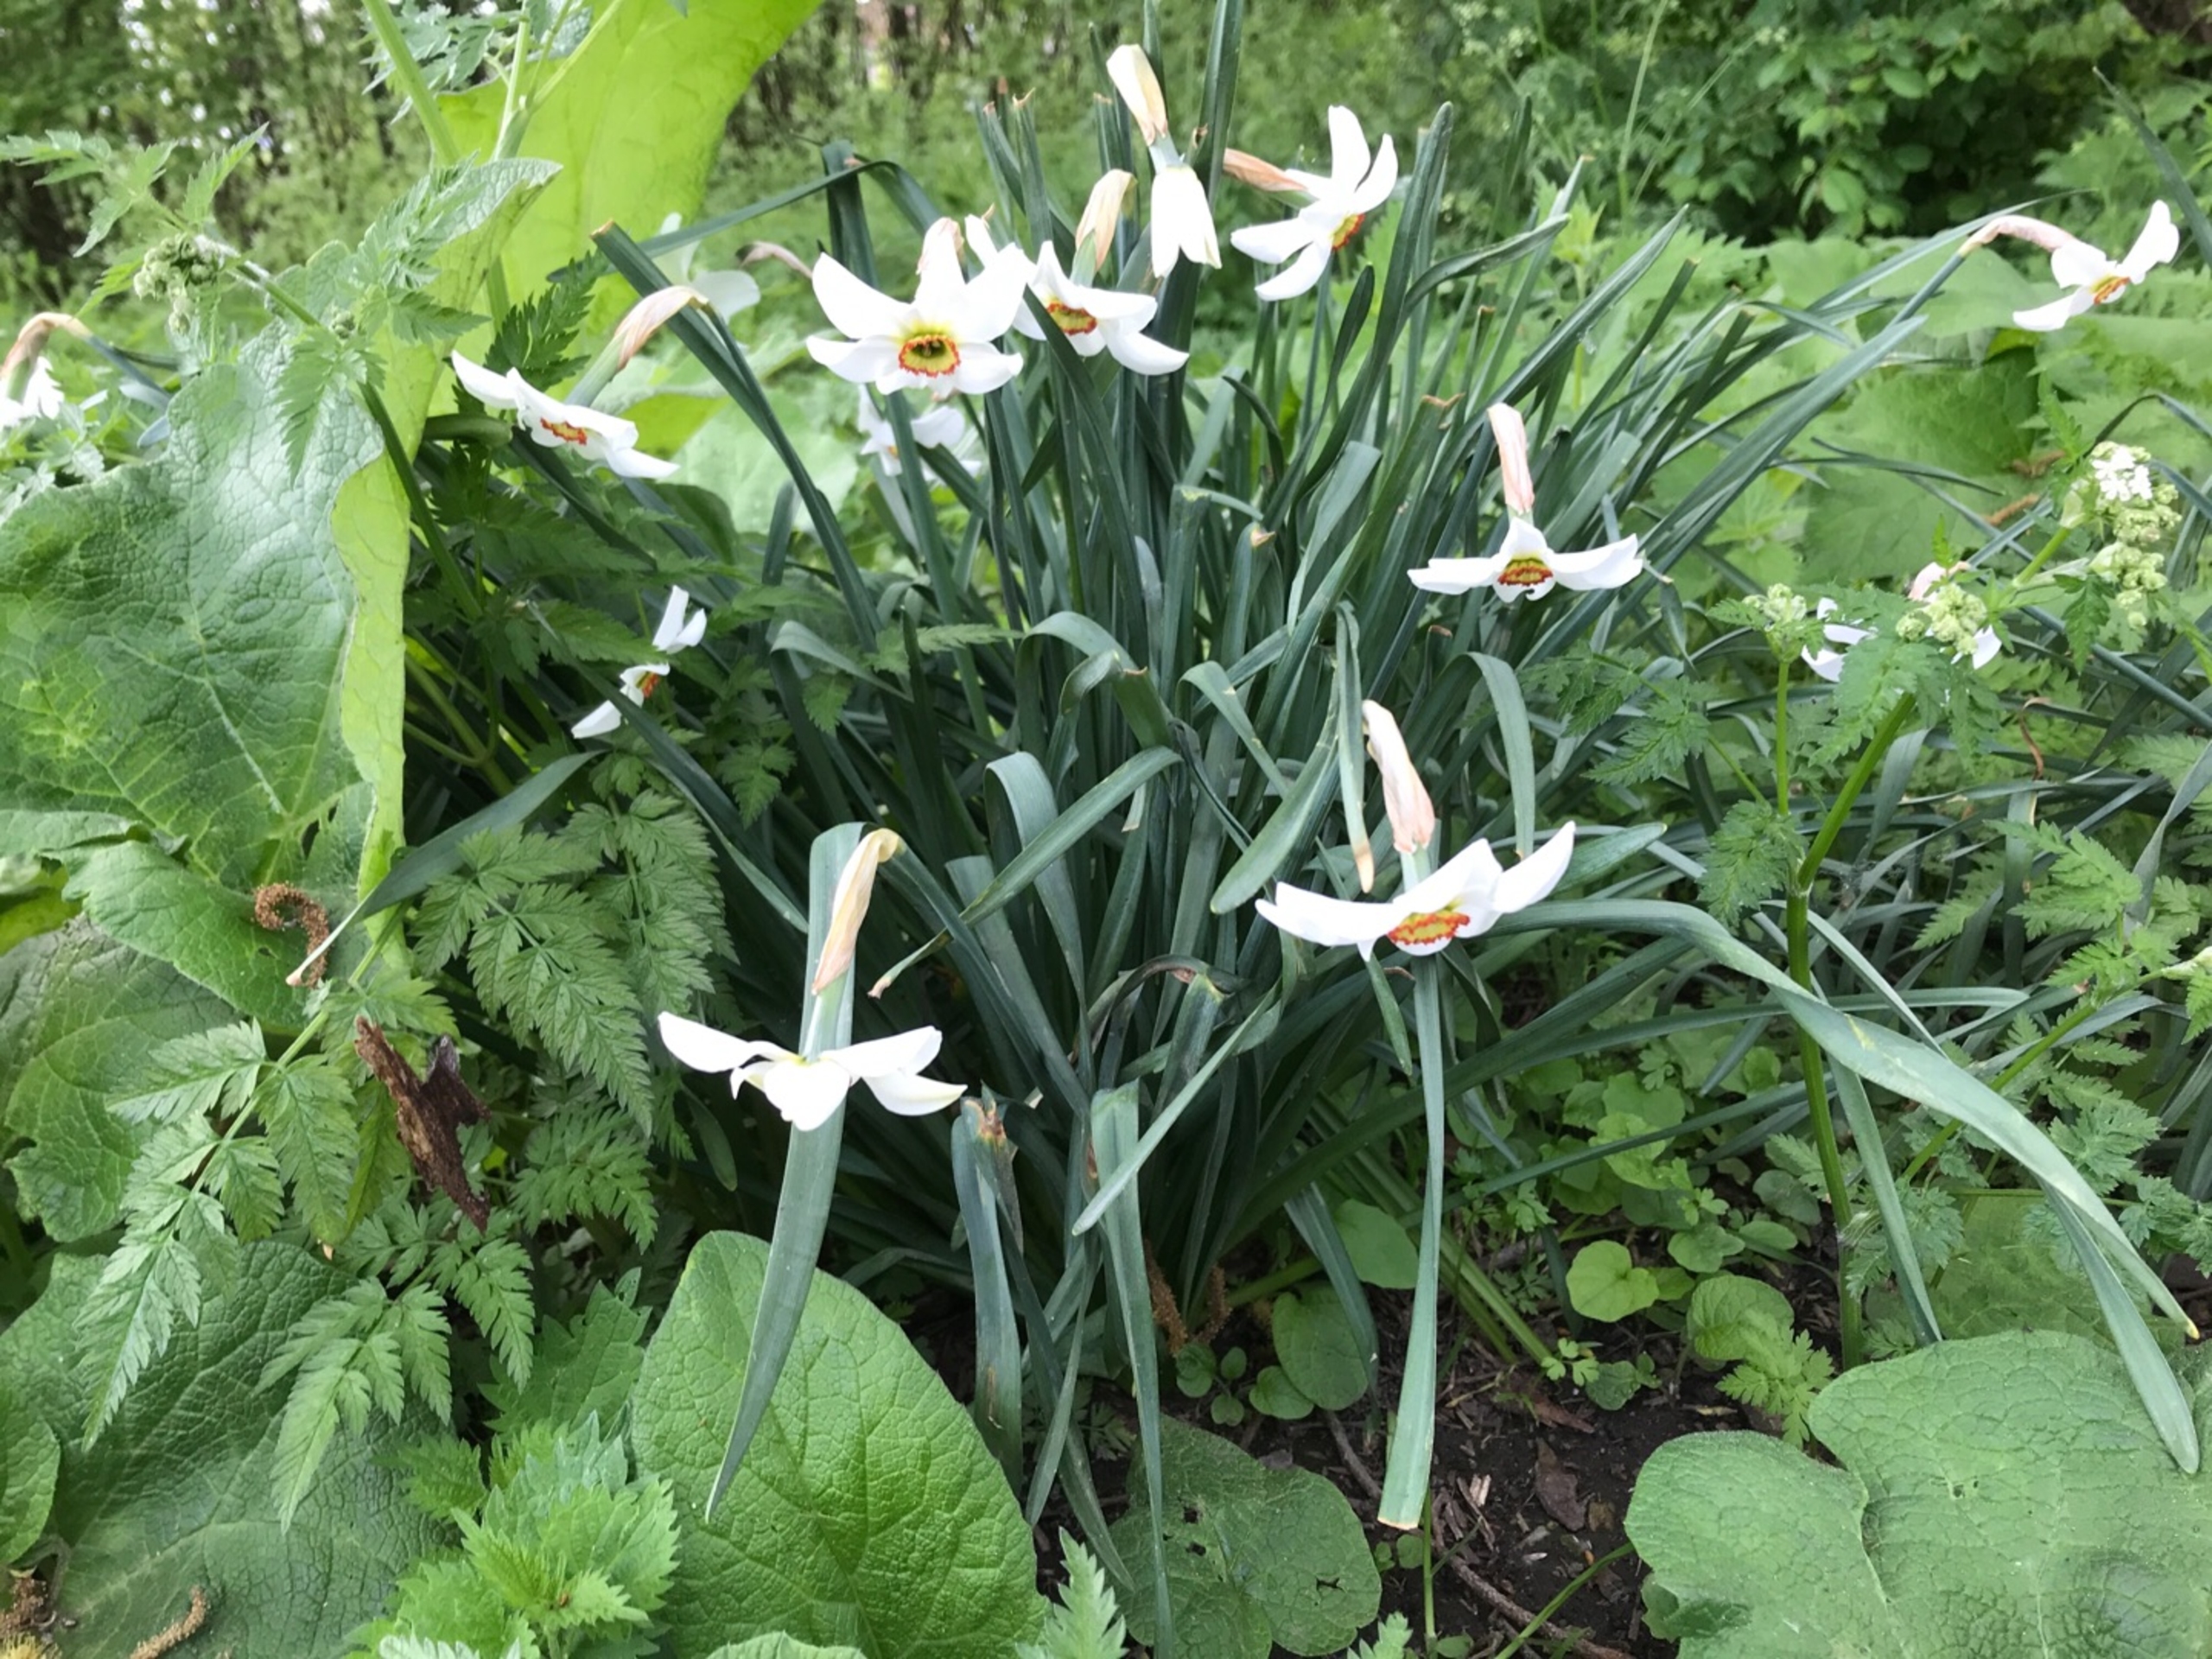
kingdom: Plantae
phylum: Tracheophyta
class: Liliopsida
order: Asparagales
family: Amaryllidaceae
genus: Narcissus
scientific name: Narcissus poeticus
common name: Pinselilje
